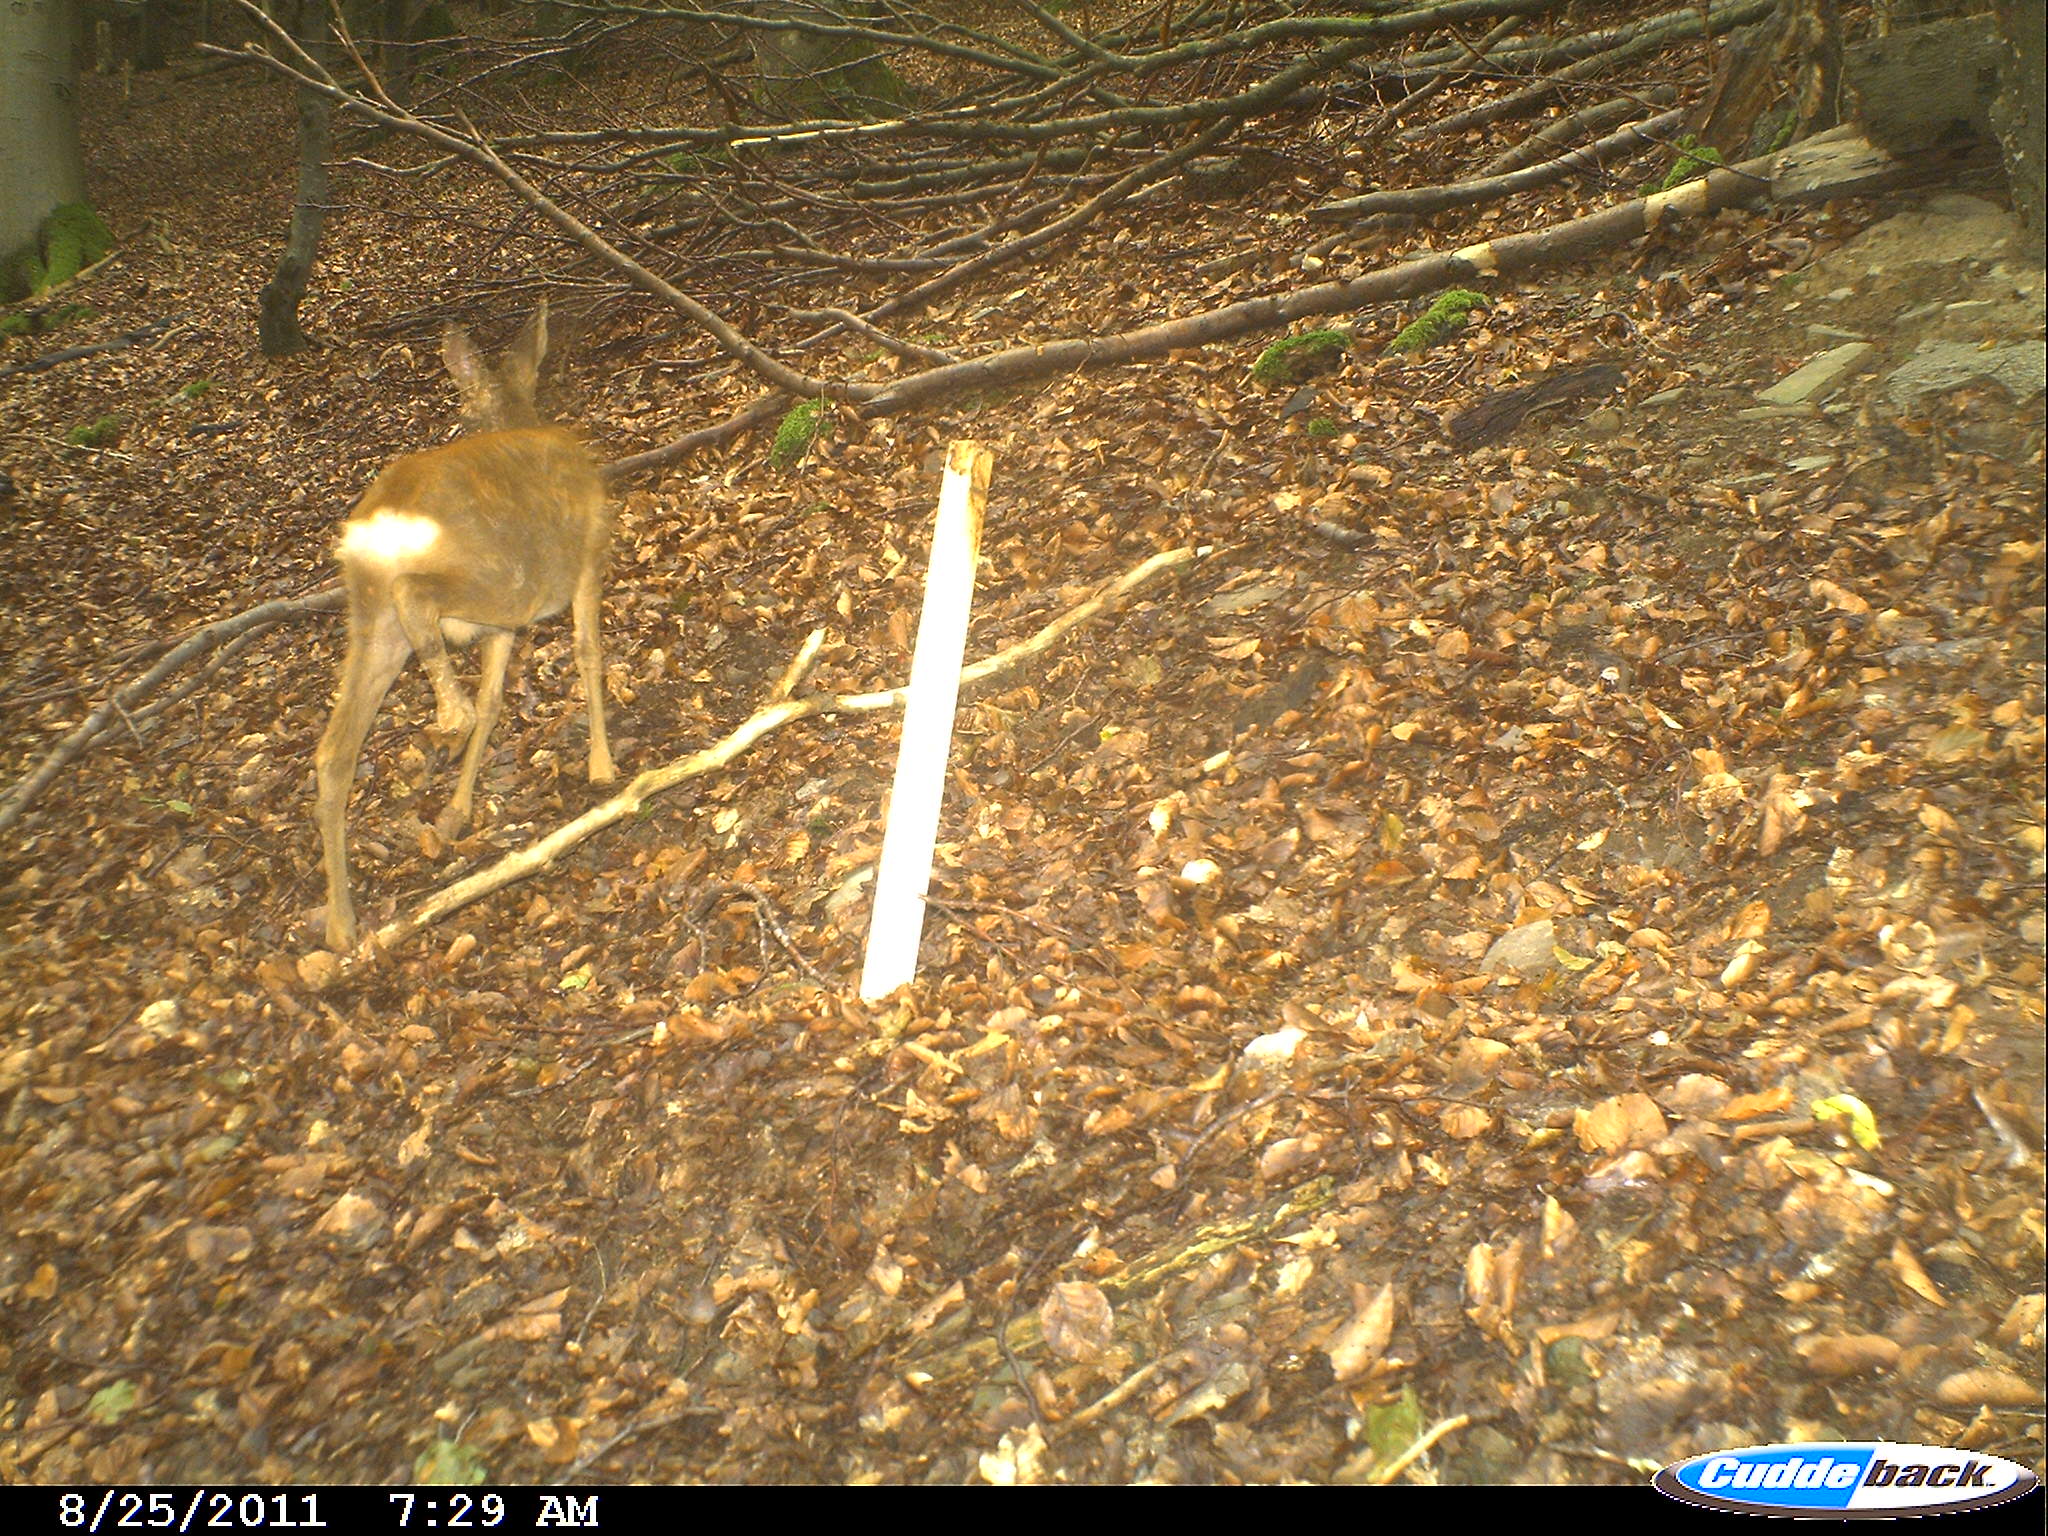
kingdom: Animalia
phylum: Chordata
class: Mammalia
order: Artiodactyla
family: Cervidae
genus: Capreolus
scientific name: Capreolus capreolus
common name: Western roe deer
